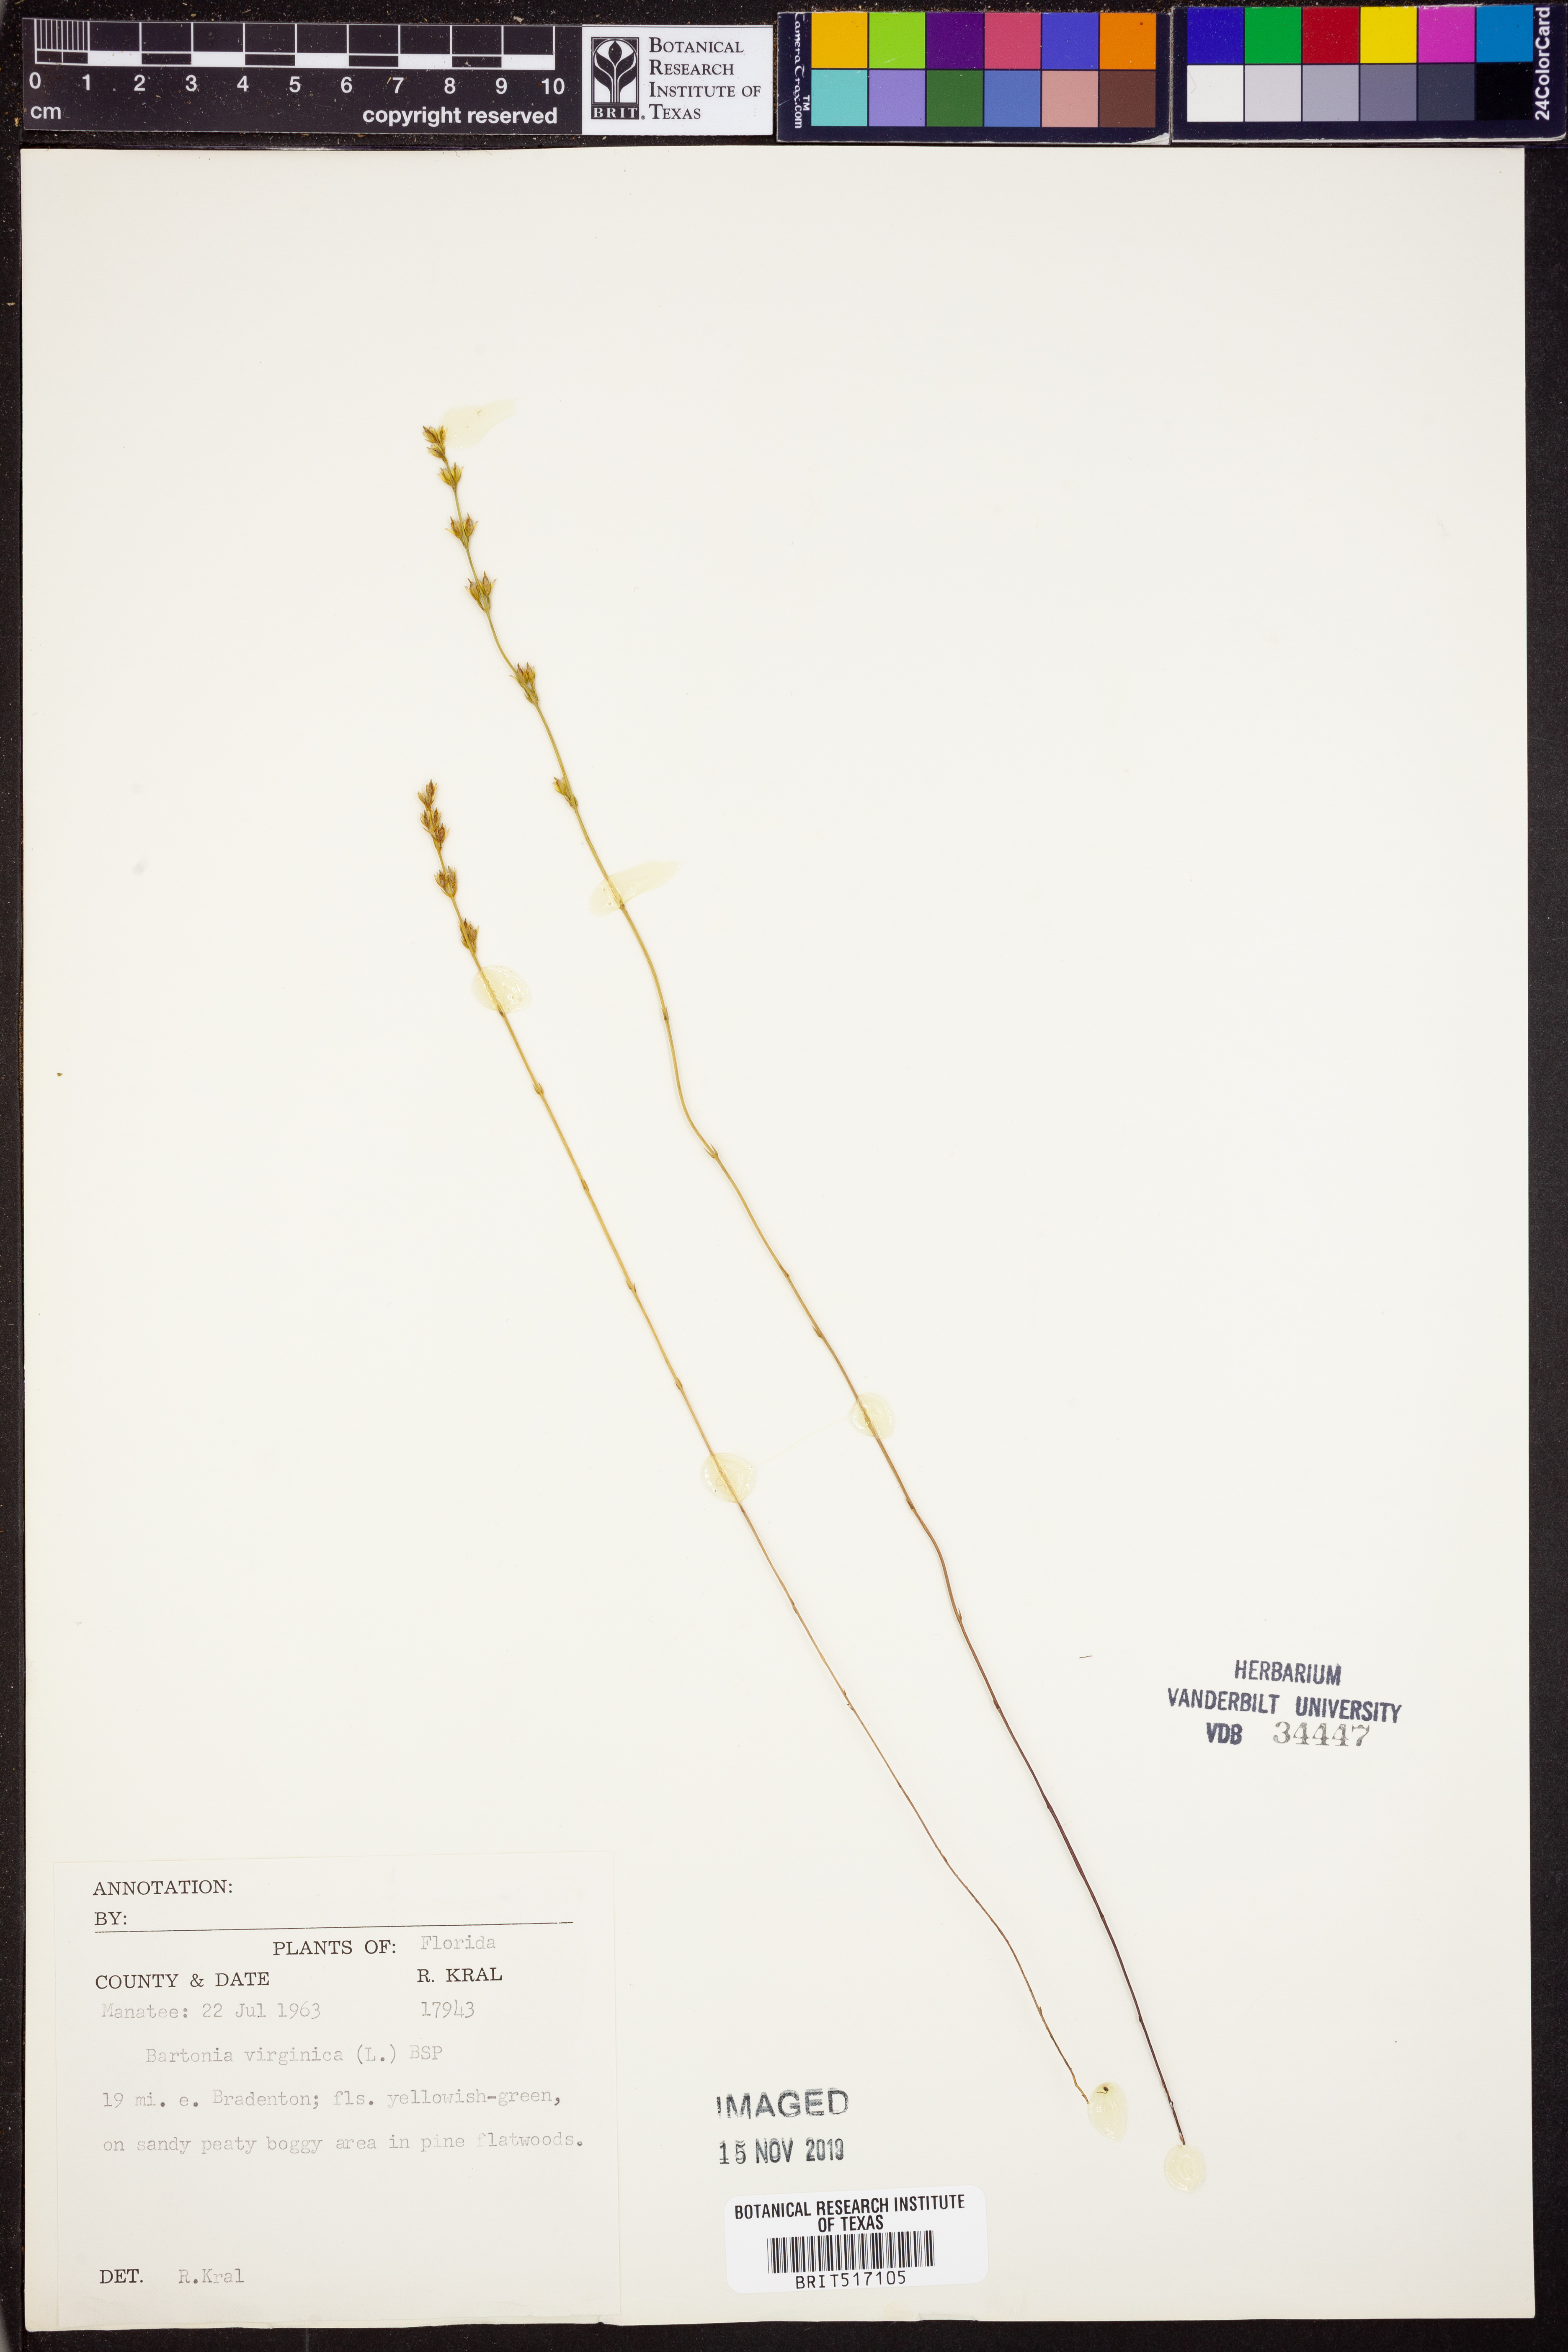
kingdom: Plantae
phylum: Tracheophyta
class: Magnoliopsida
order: Gentianales
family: Gentianaceae
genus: Bartonia
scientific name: Bartonia virginica
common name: Yellow bartonia
